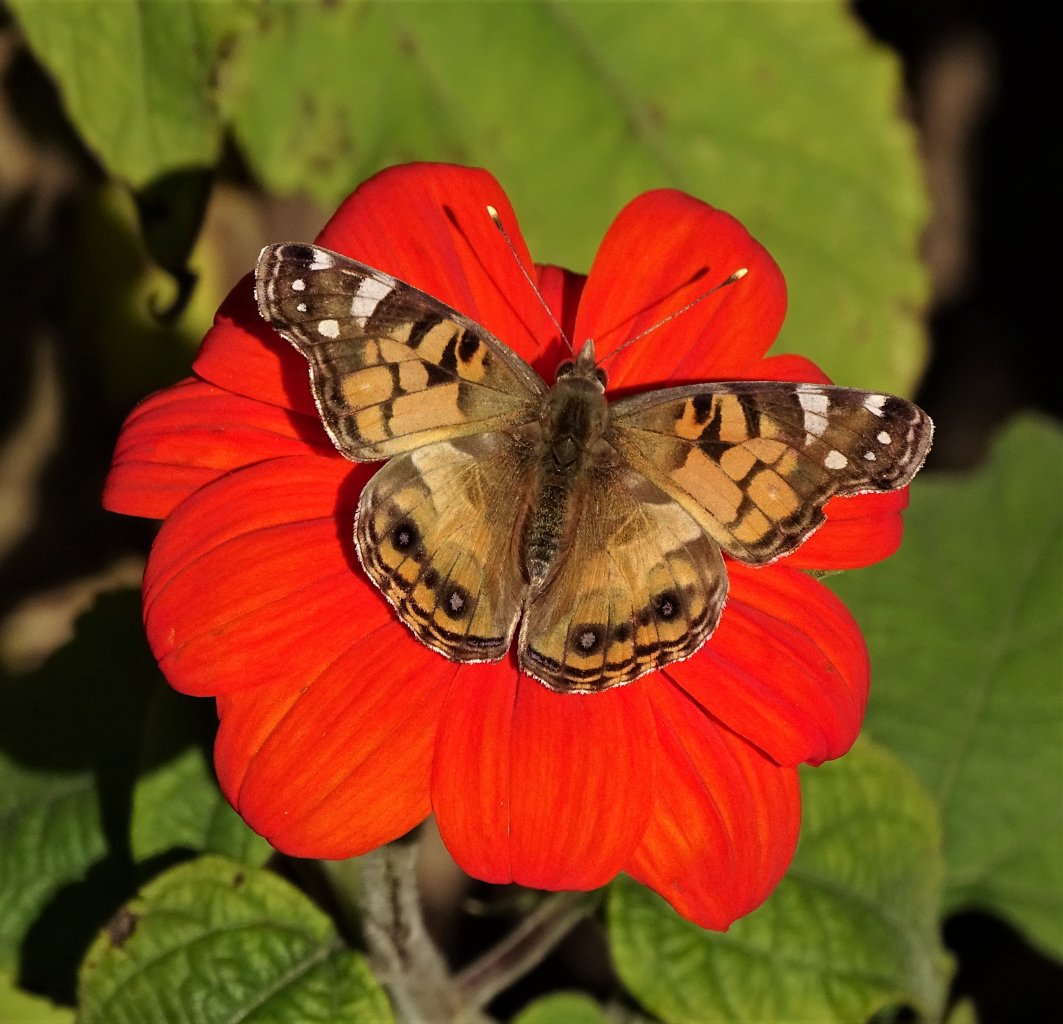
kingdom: Animalia
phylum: Arthropoda
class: Insecta
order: Lepidoptera
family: Nymphalidae
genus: Vanessa
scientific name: Vanessa virginiensis
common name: American Lady
